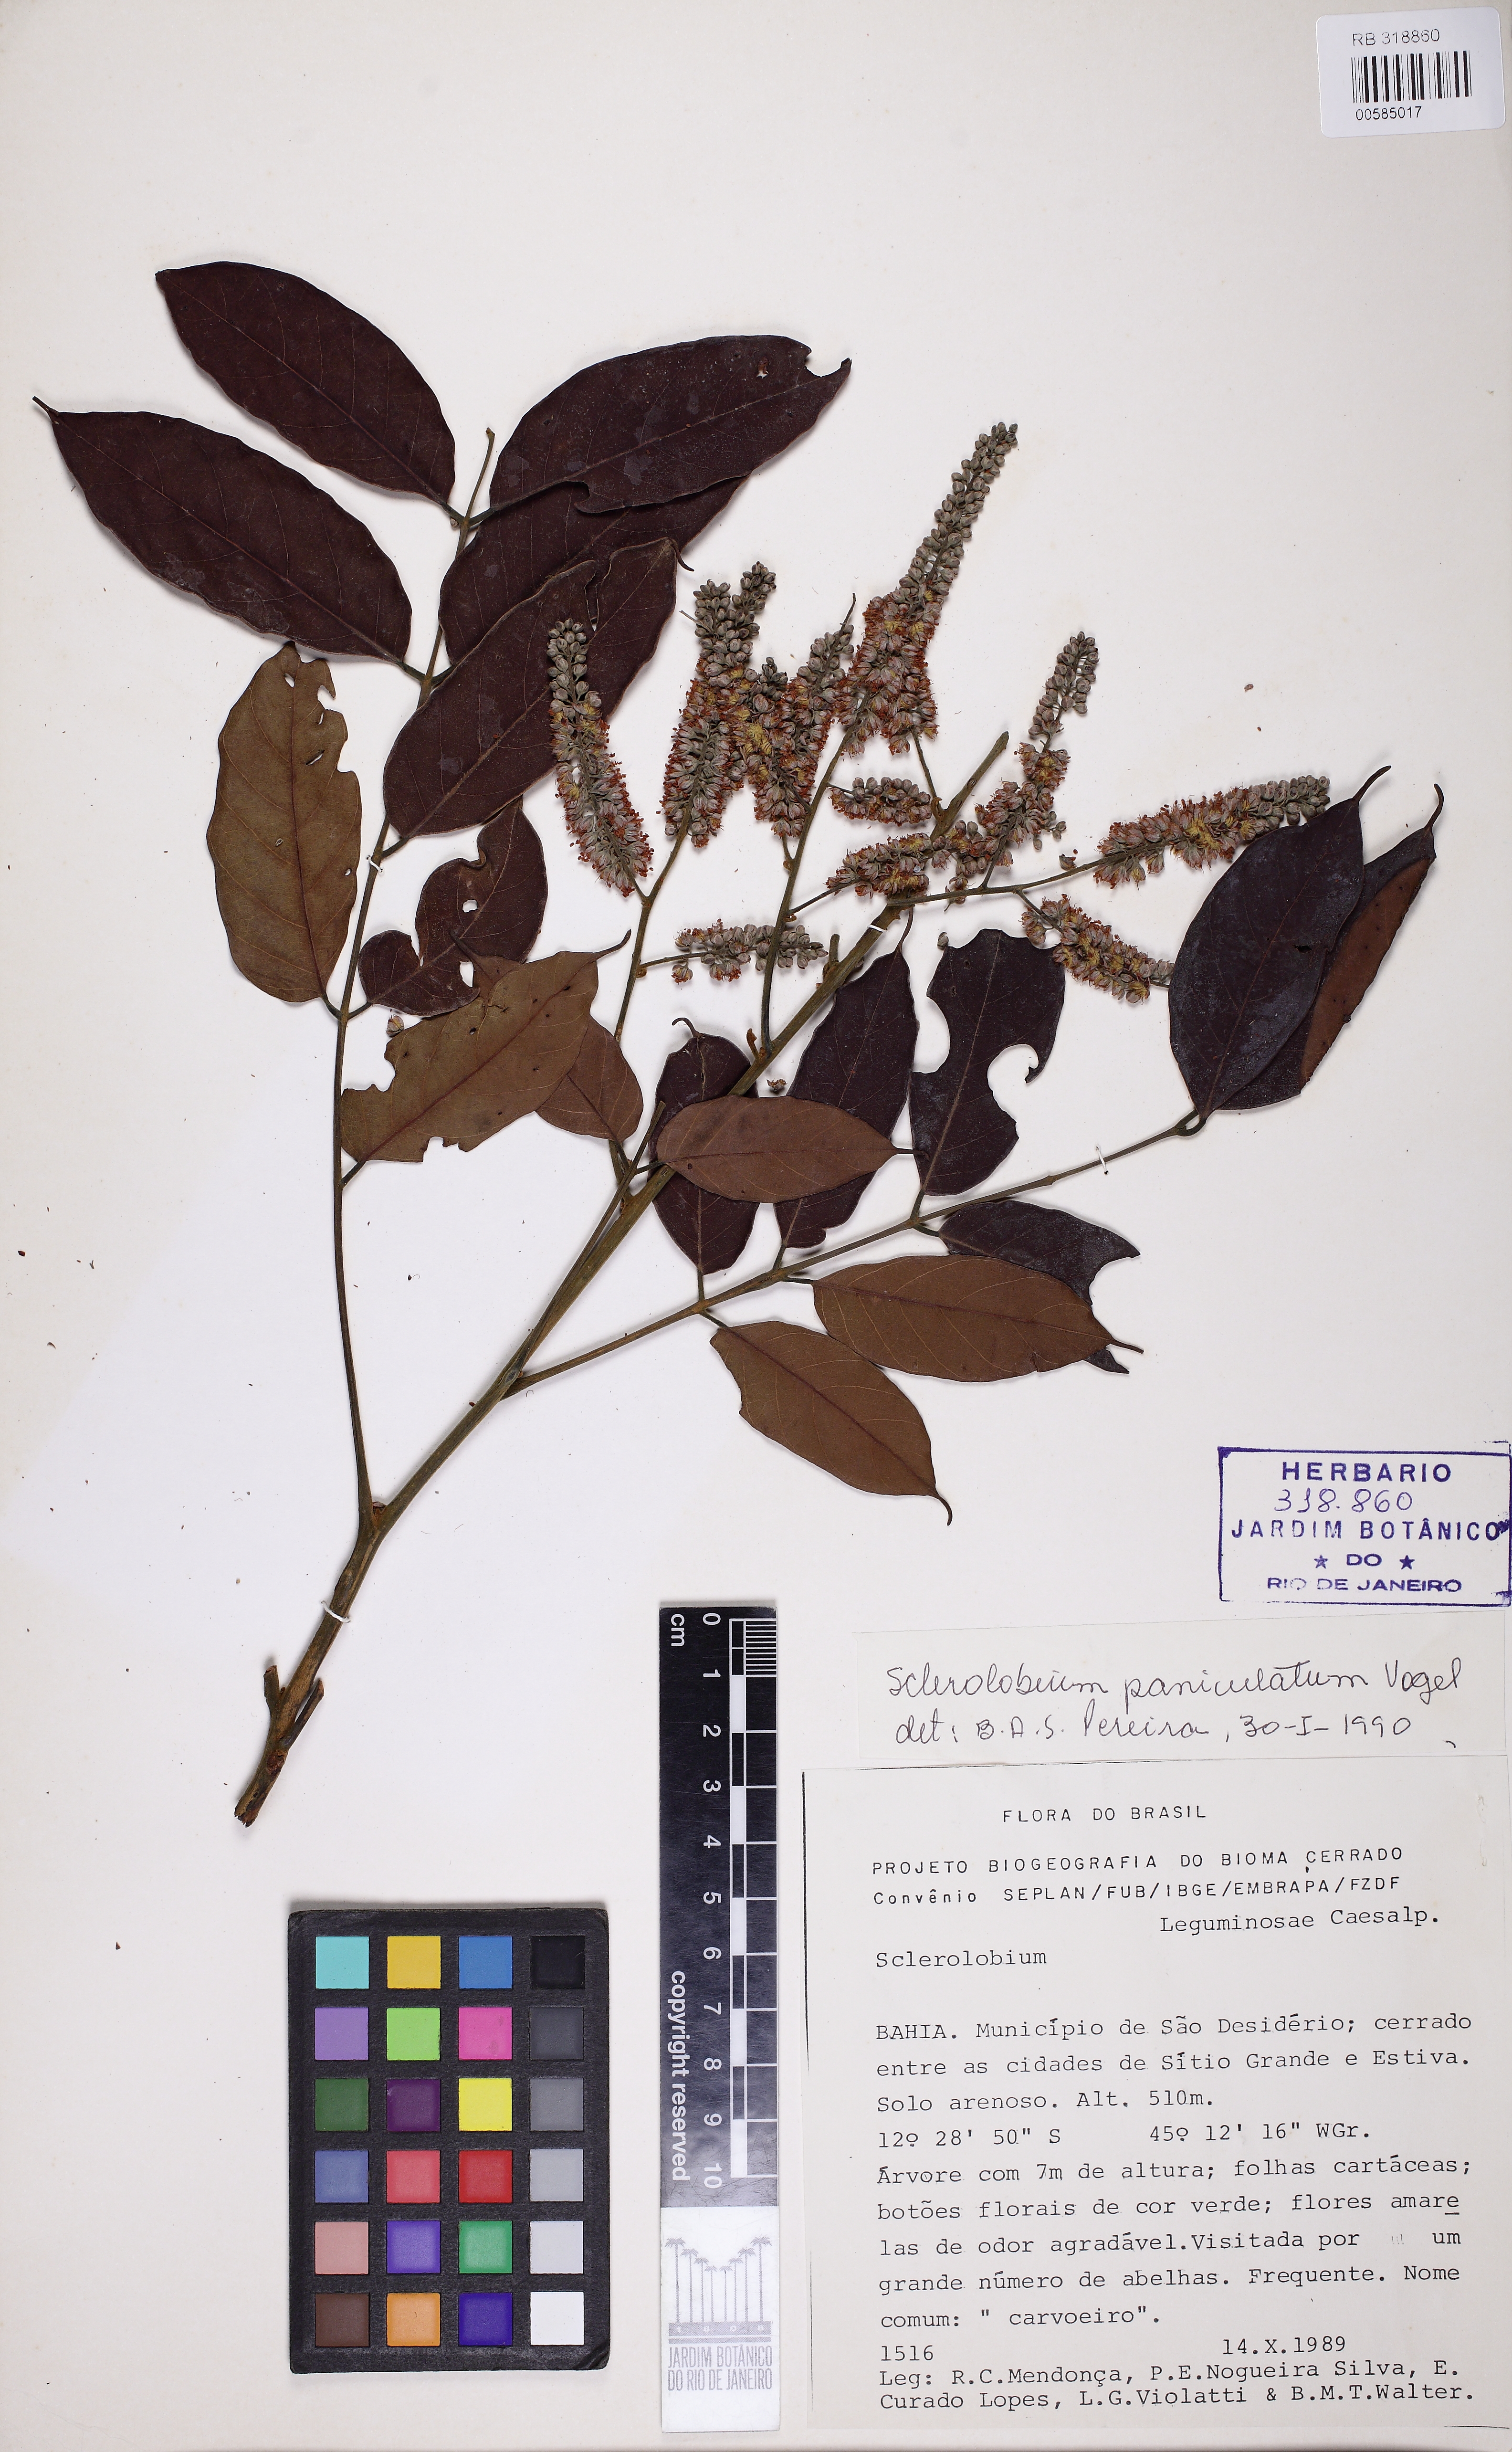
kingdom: Plantae
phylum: Tracheophyta
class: Magnoliopsida
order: Fabales
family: Fabaceae
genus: Tachigali
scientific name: Tachigali vulgaris
